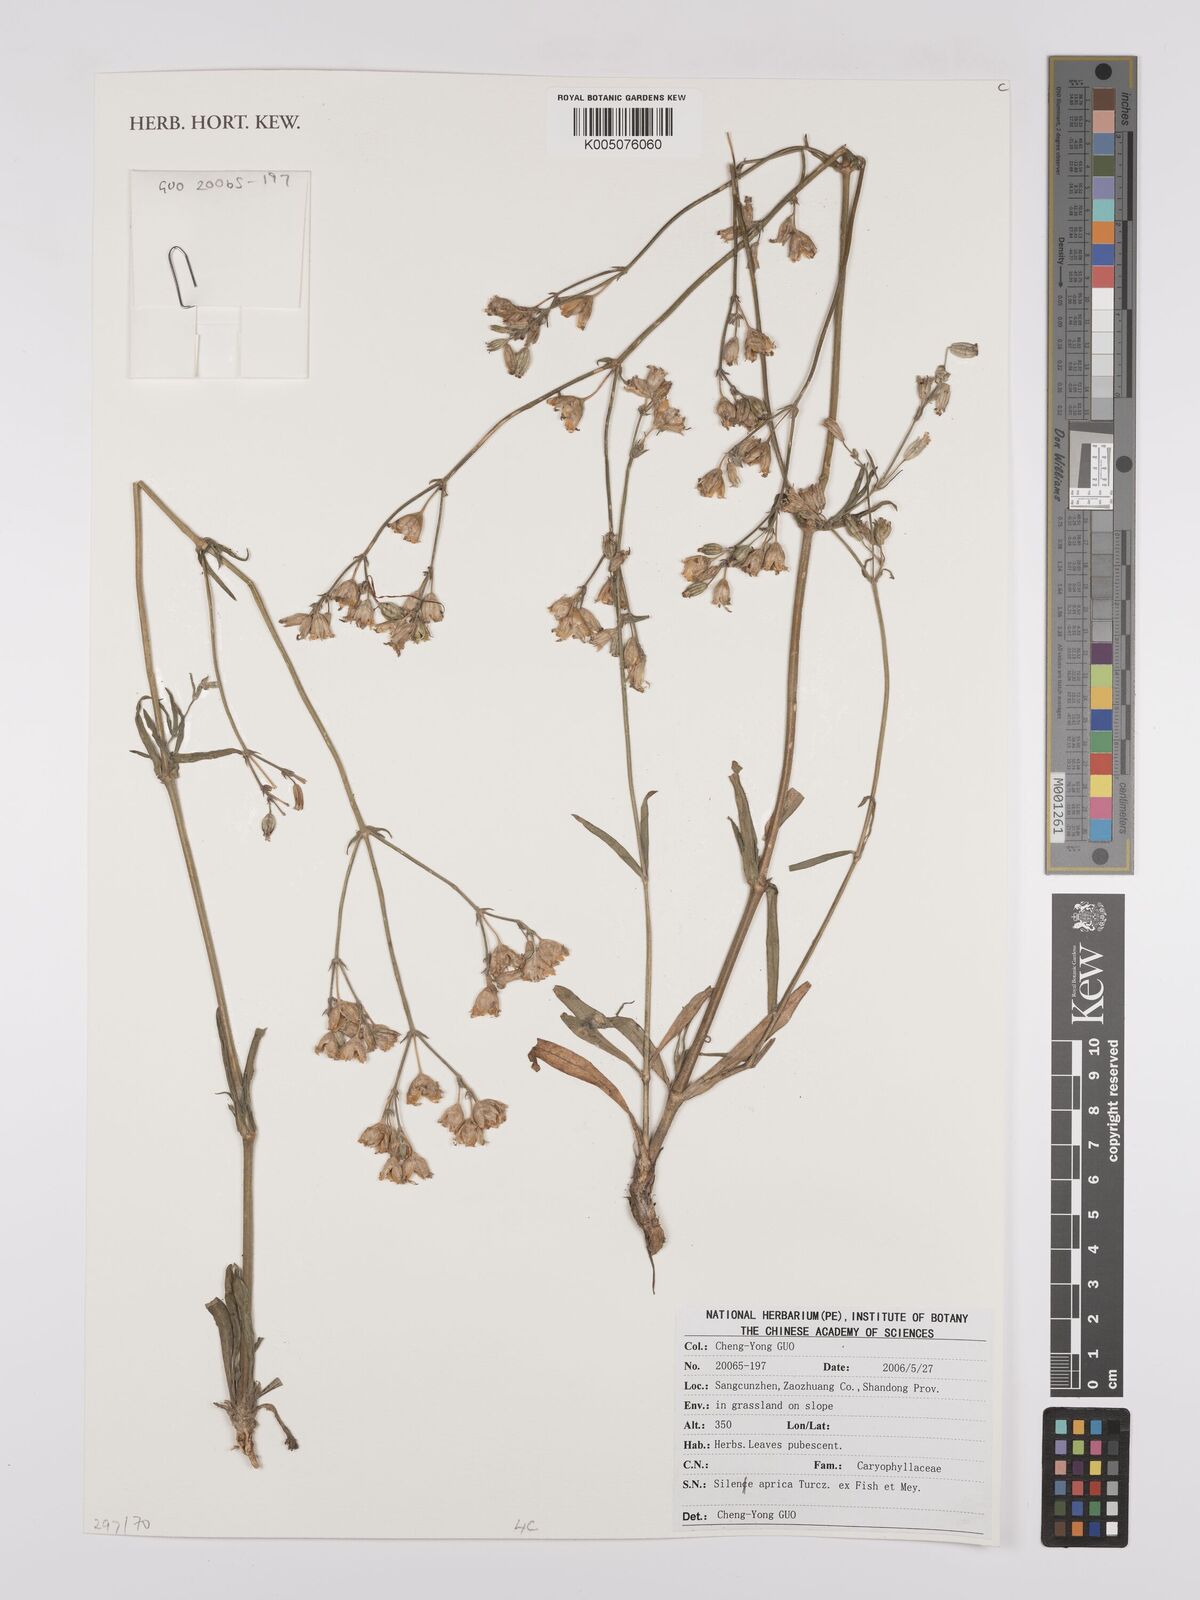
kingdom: Plantae
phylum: Tracheophyta
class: Magnoliopsida
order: Caryophyllales
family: Caryophyllaceae
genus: Silene
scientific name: Silene aprica
